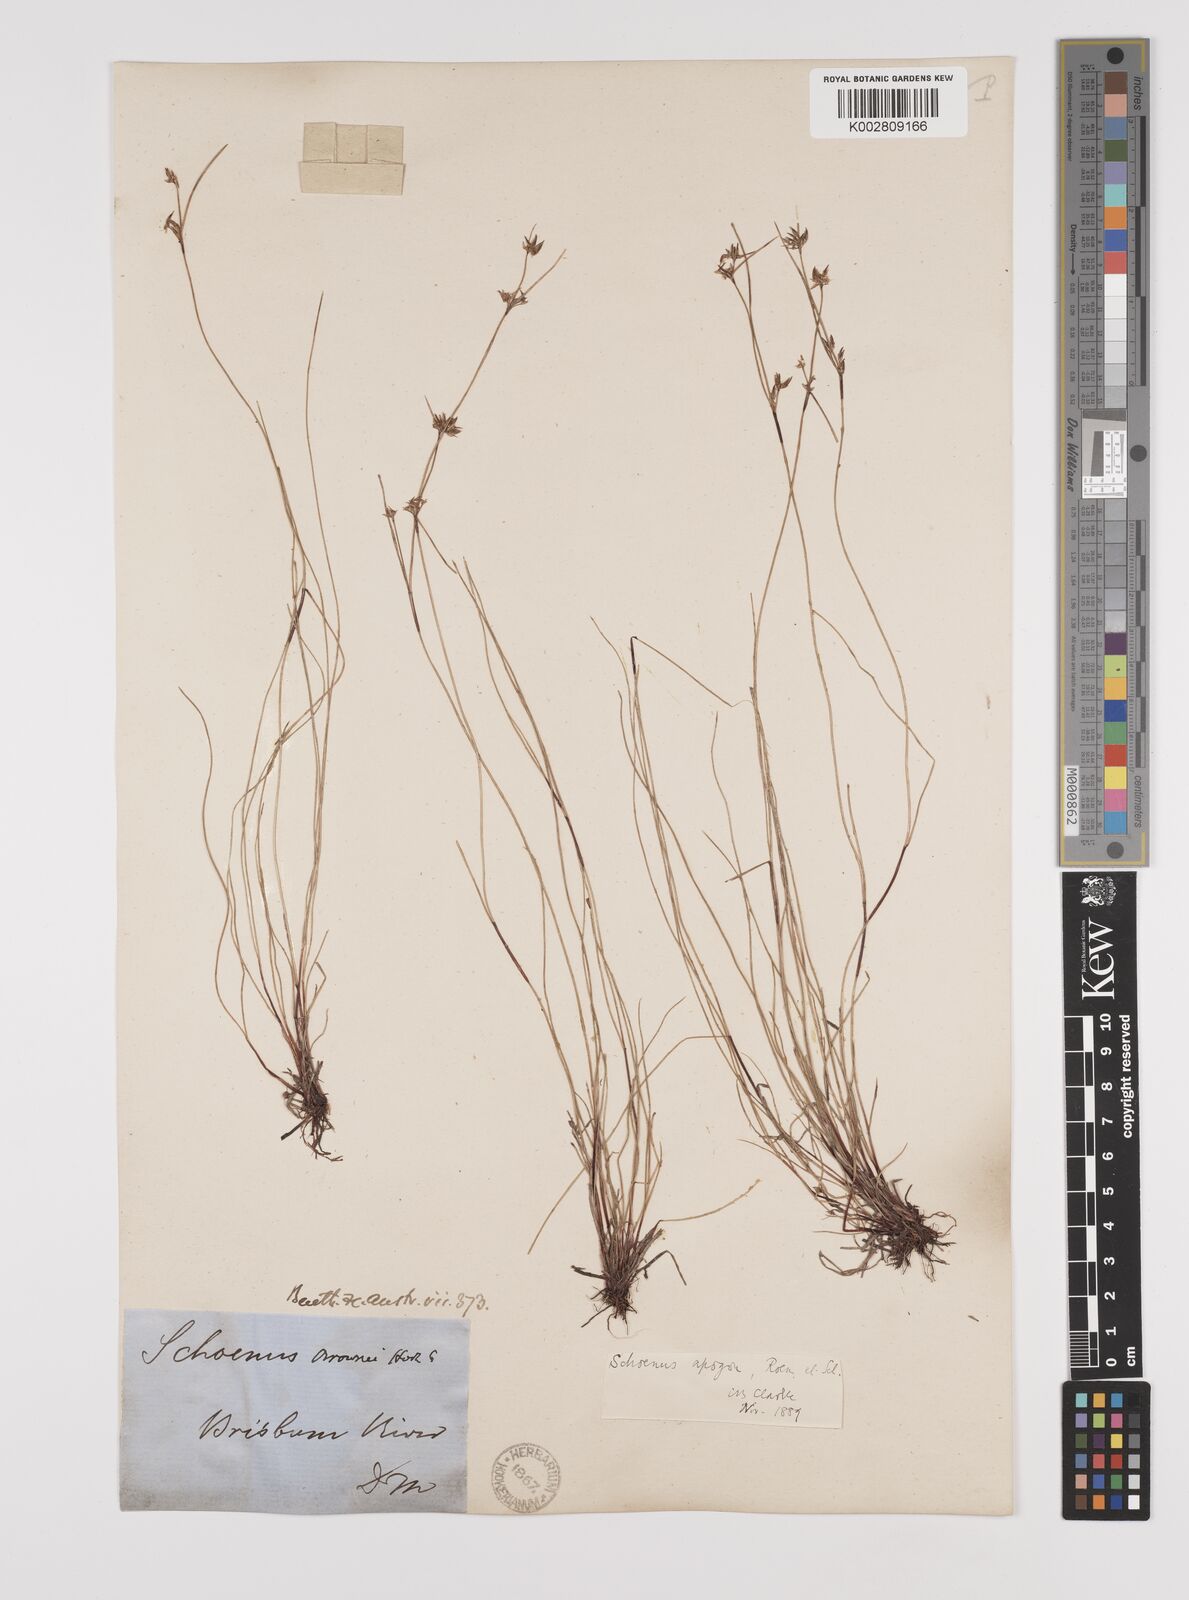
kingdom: Plantae
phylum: Tracheophyta
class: Liliopsida
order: Poales
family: Cyperaceae
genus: Schoenus
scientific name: Schoenus apogon
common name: Smooth bogrush
